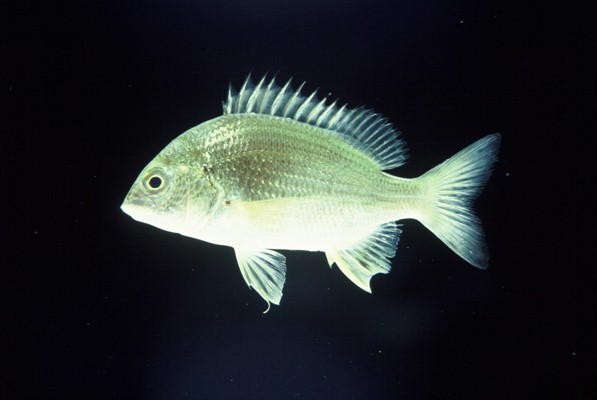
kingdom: Animalia
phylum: Chordata
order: Perciformes
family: Sparidae
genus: Acanthopagrus
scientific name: Acanthopagrus berda
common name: Picnic seabream
